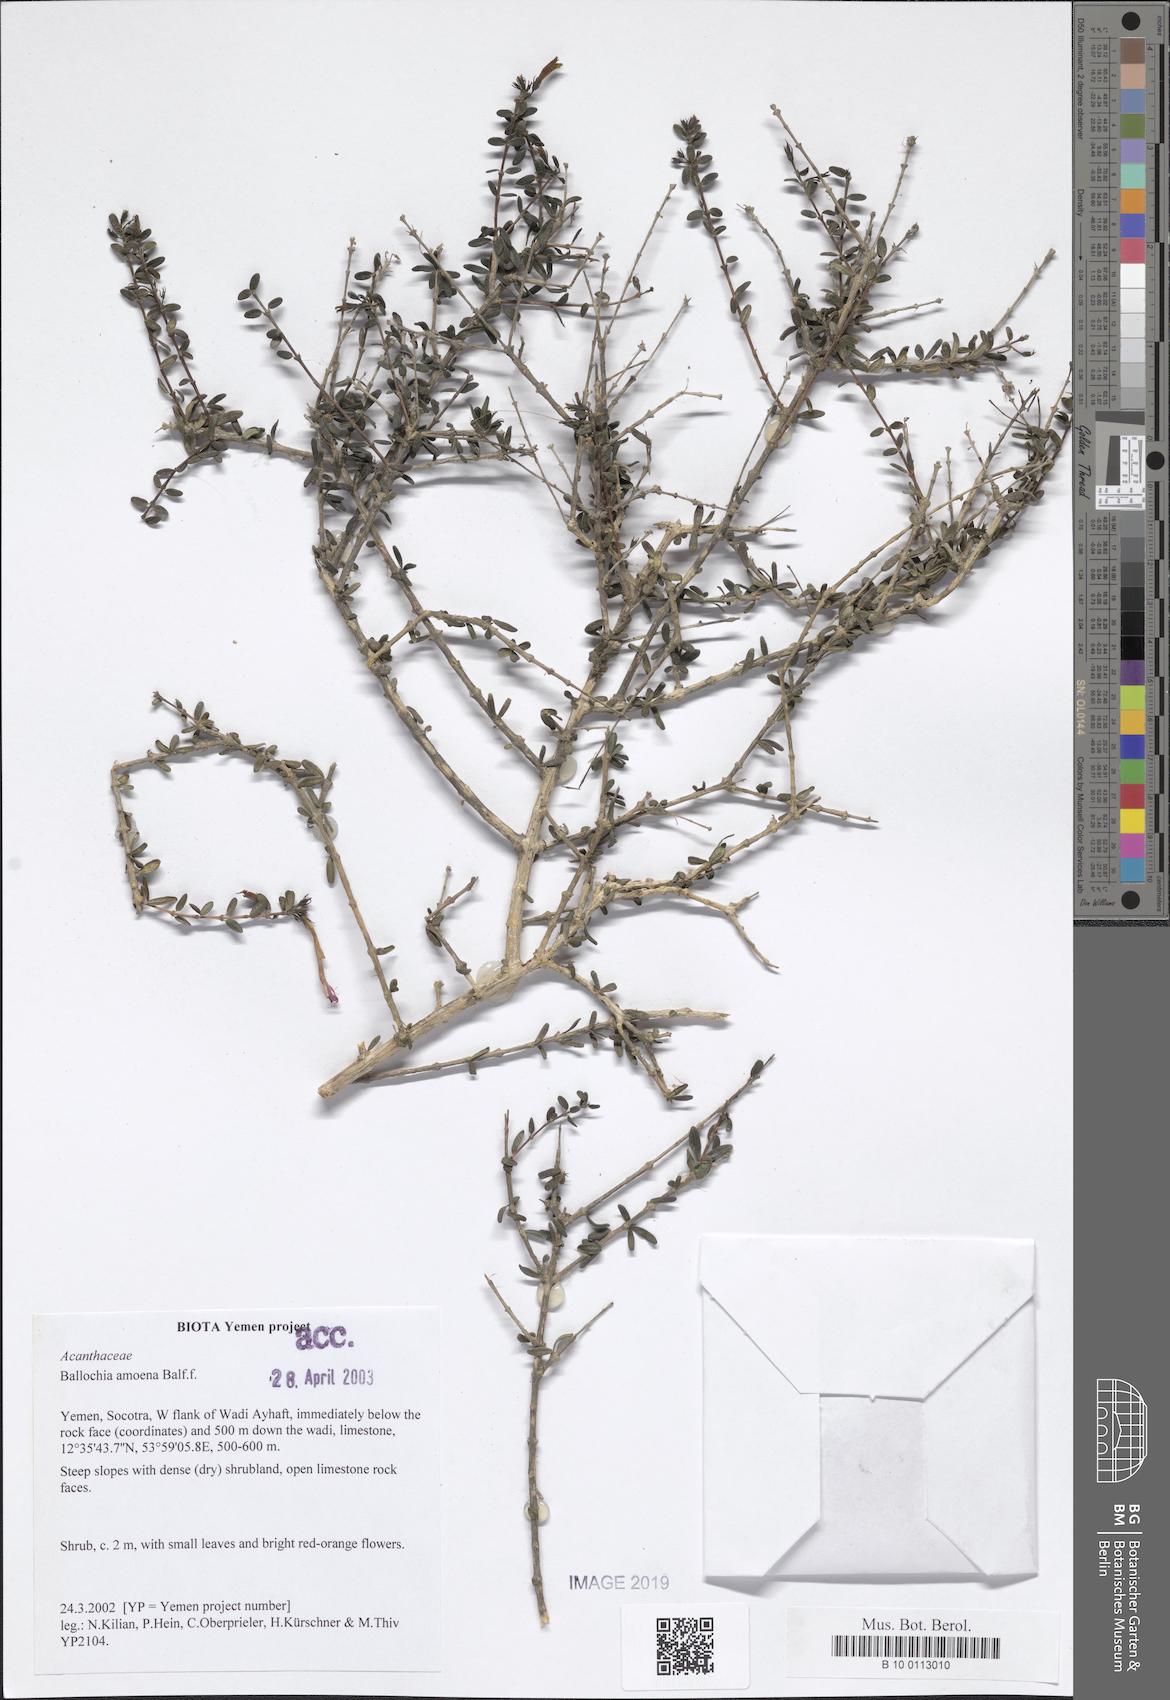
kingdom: Plantae
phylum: Tracheophyta
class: Magnoliopsida
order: Lamiales
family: Acanthaceae
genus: Ballochia
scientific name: Ballochia amoena
